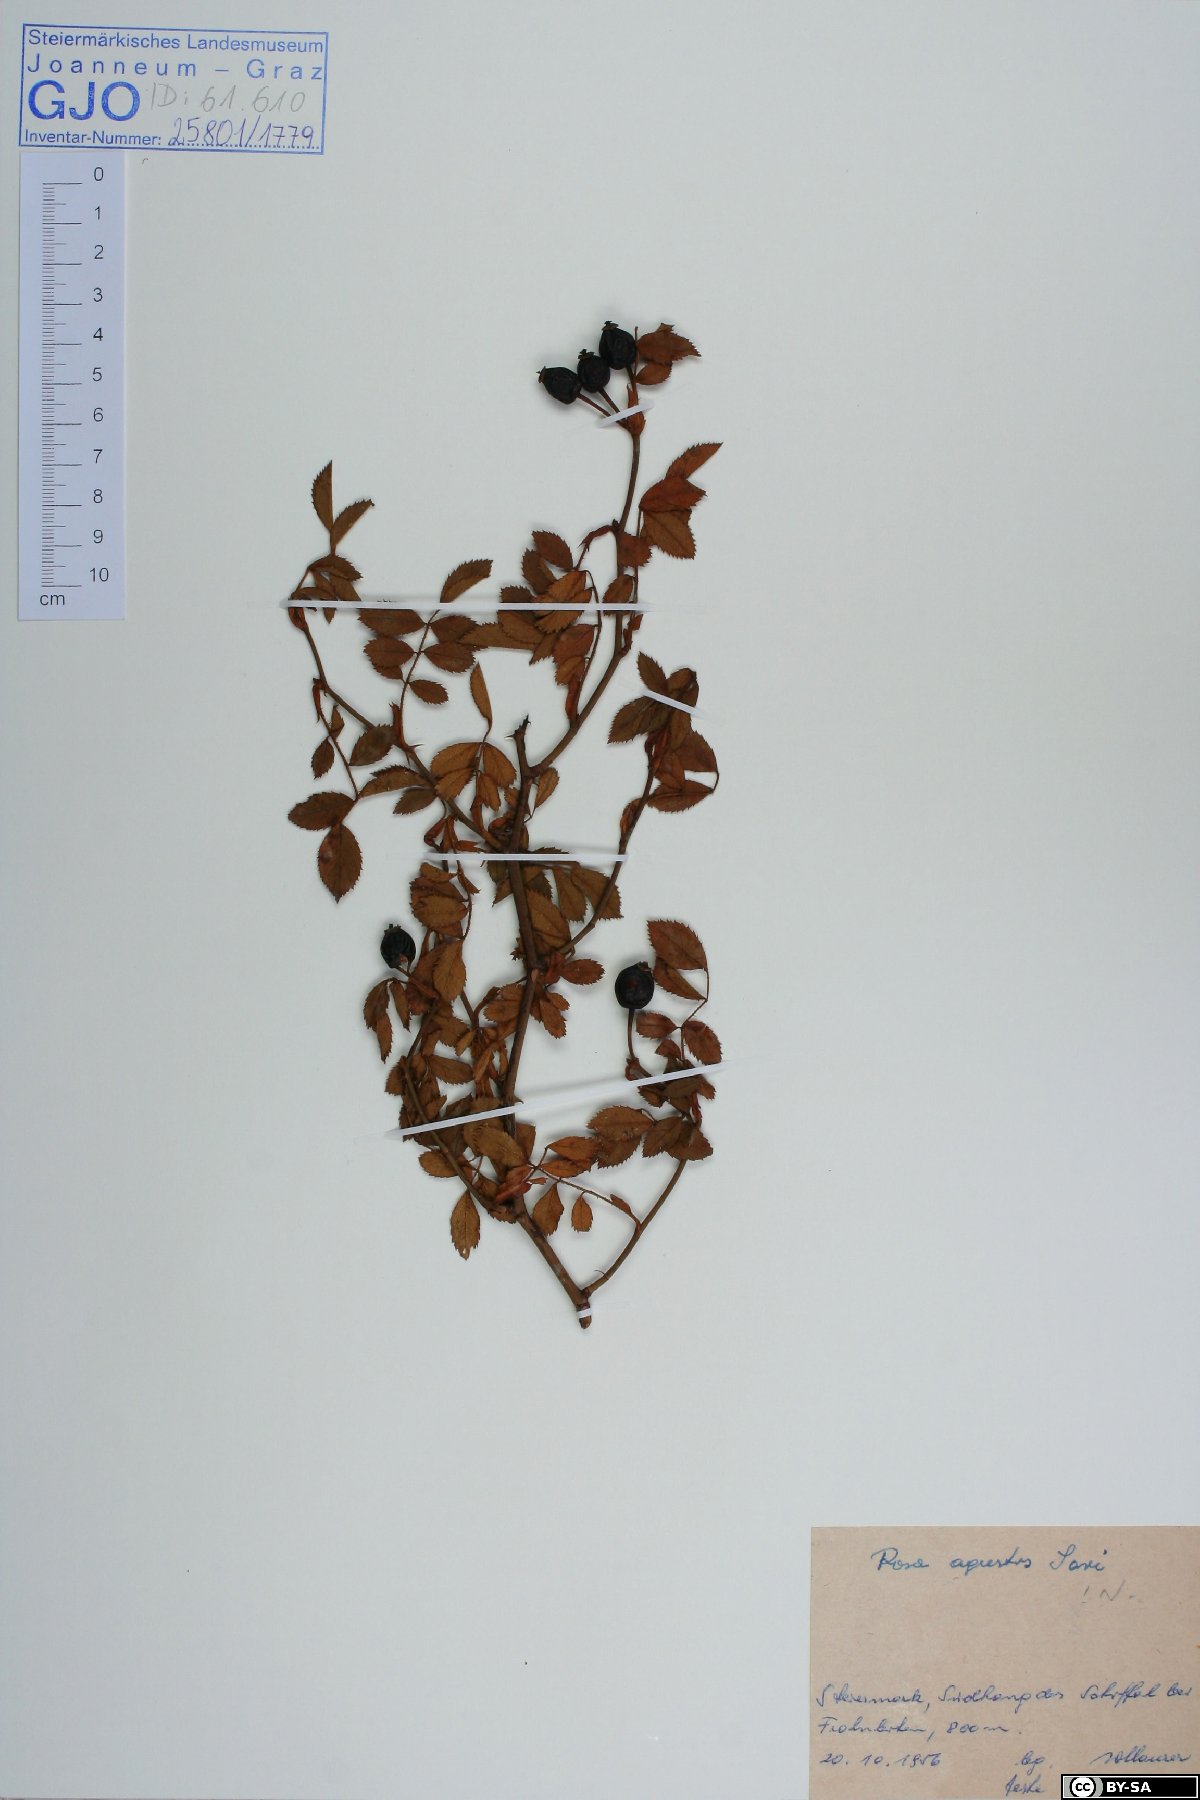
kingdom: Plantae
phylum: Tracheophyta
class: Magnoliopsida
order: Rosales
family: Rosaceae
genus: Rosa
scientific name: Rosa agrestis
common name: Fieldbriar
